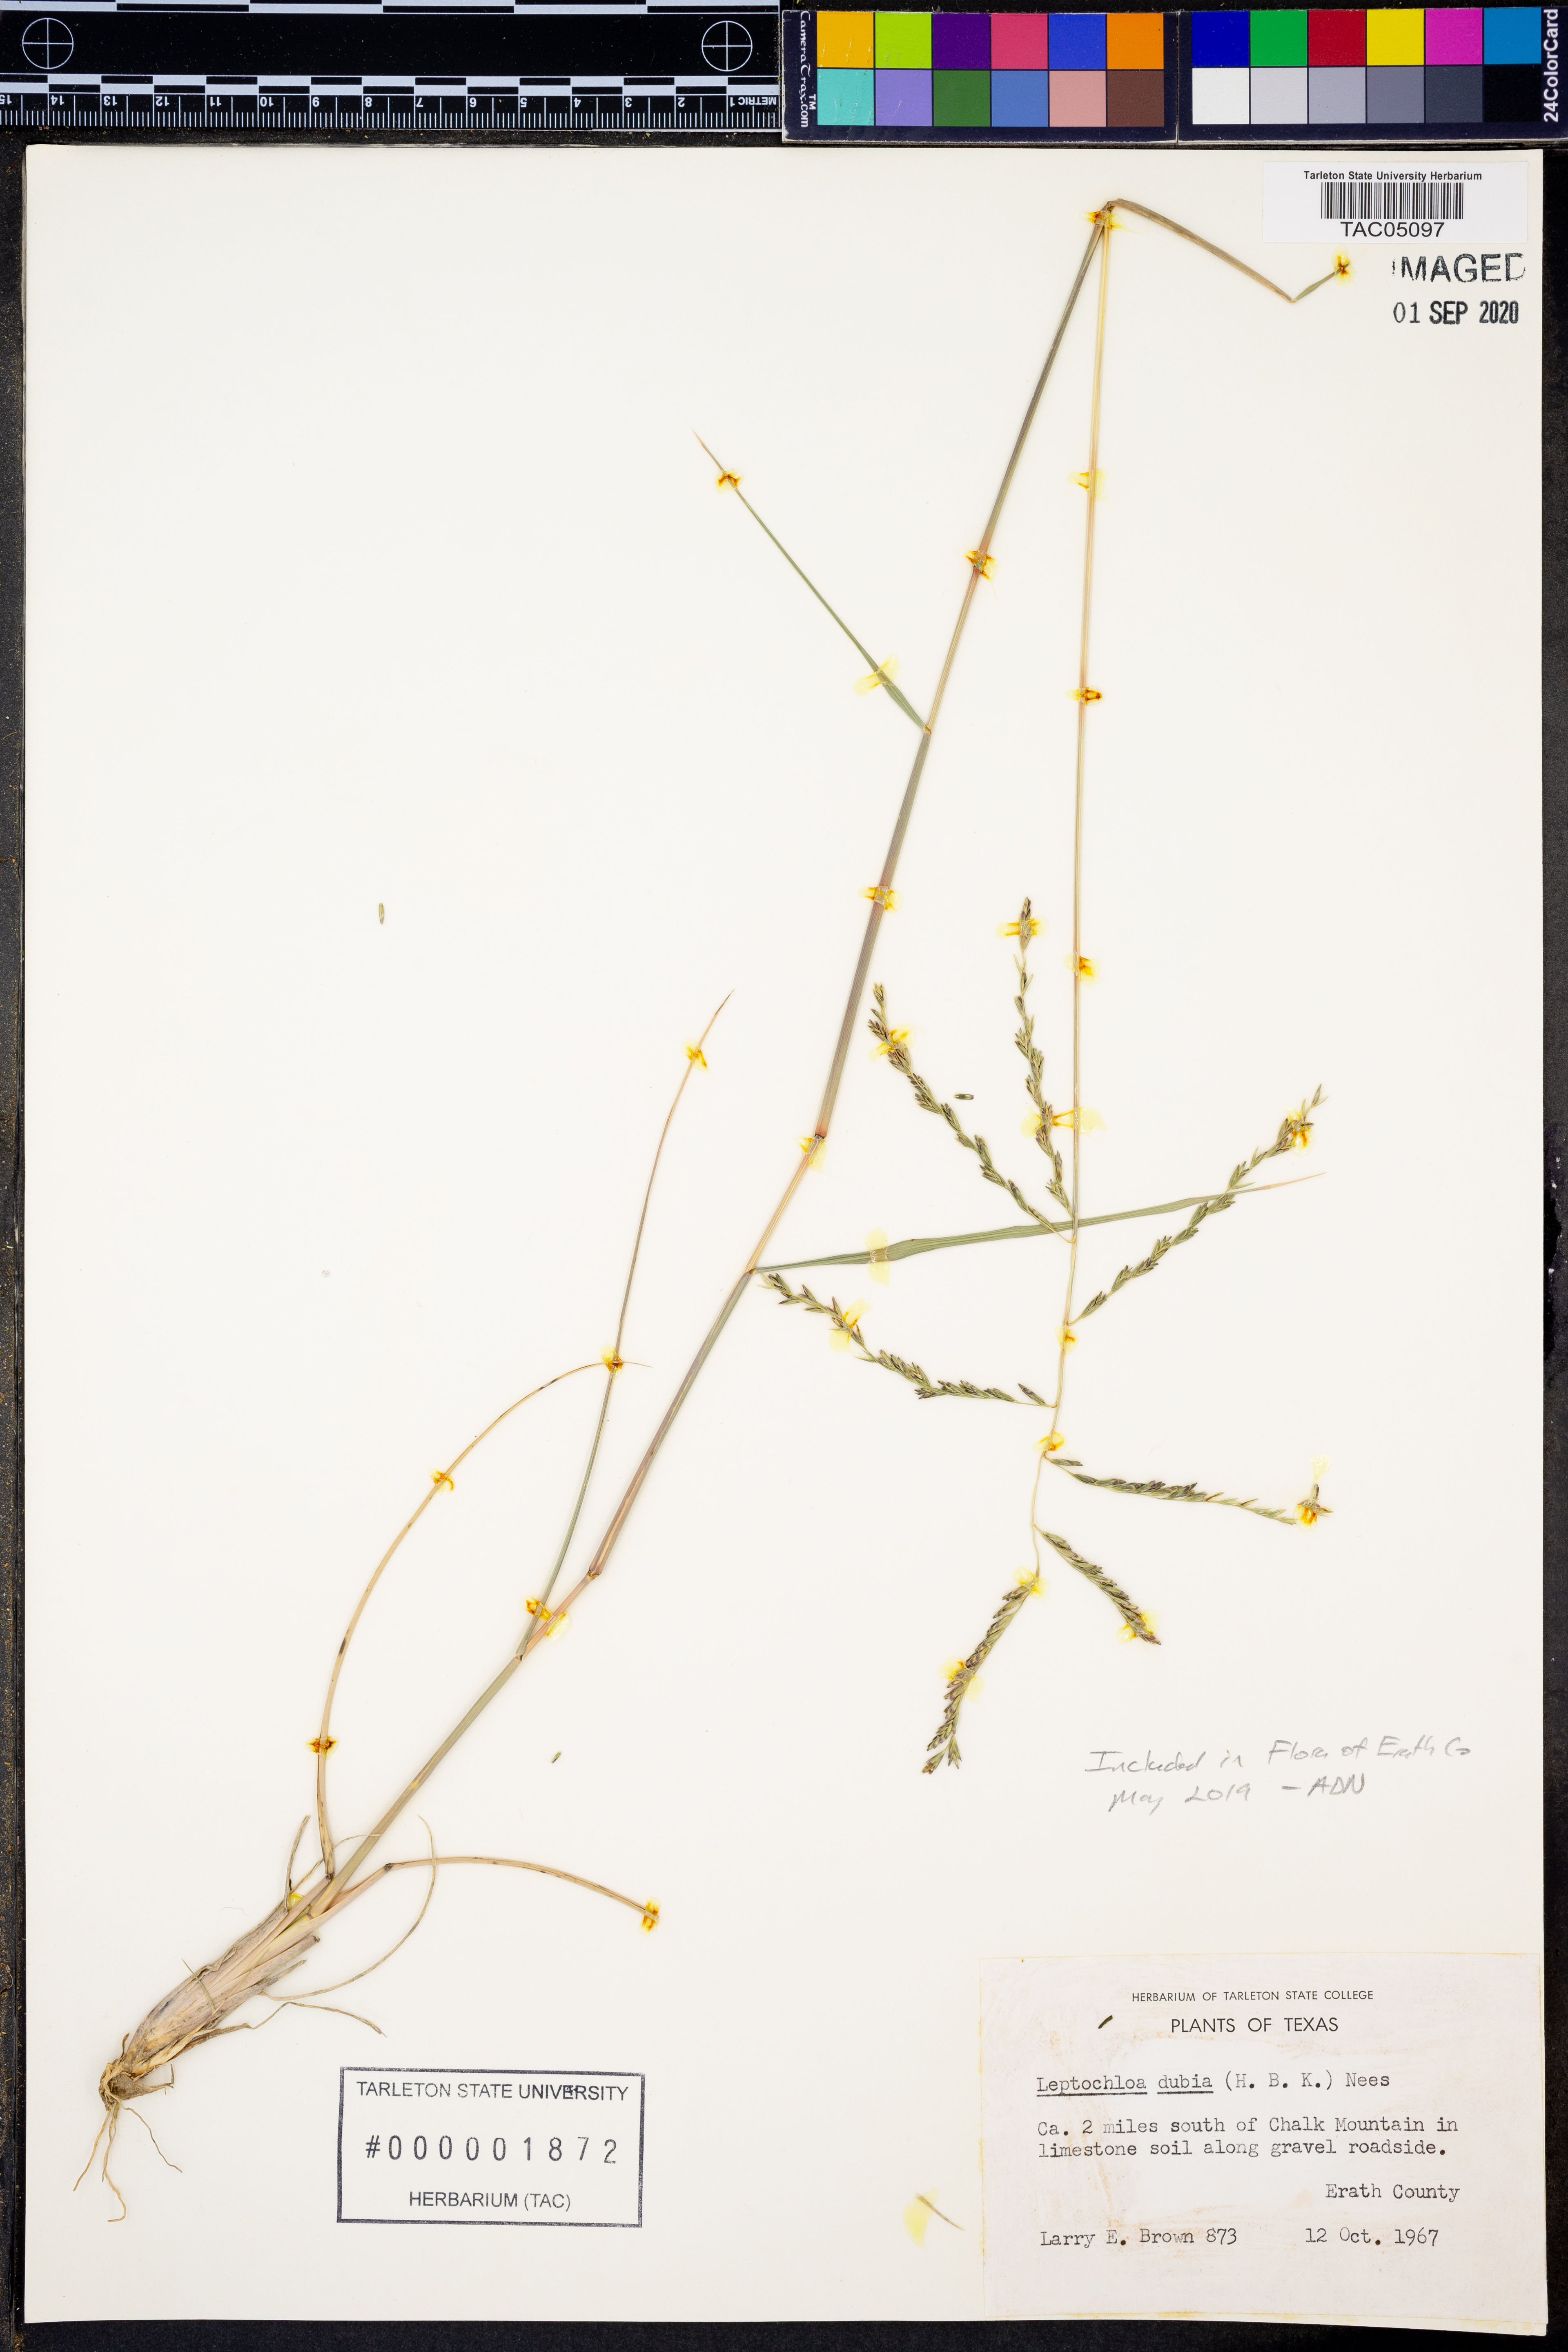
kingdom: Plantae
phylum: Tracheophyta
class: Liliopsida
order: Poales
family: Poaceae
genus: Disakisperma
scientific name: Disakisperma dubium
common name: Green sprangletop
